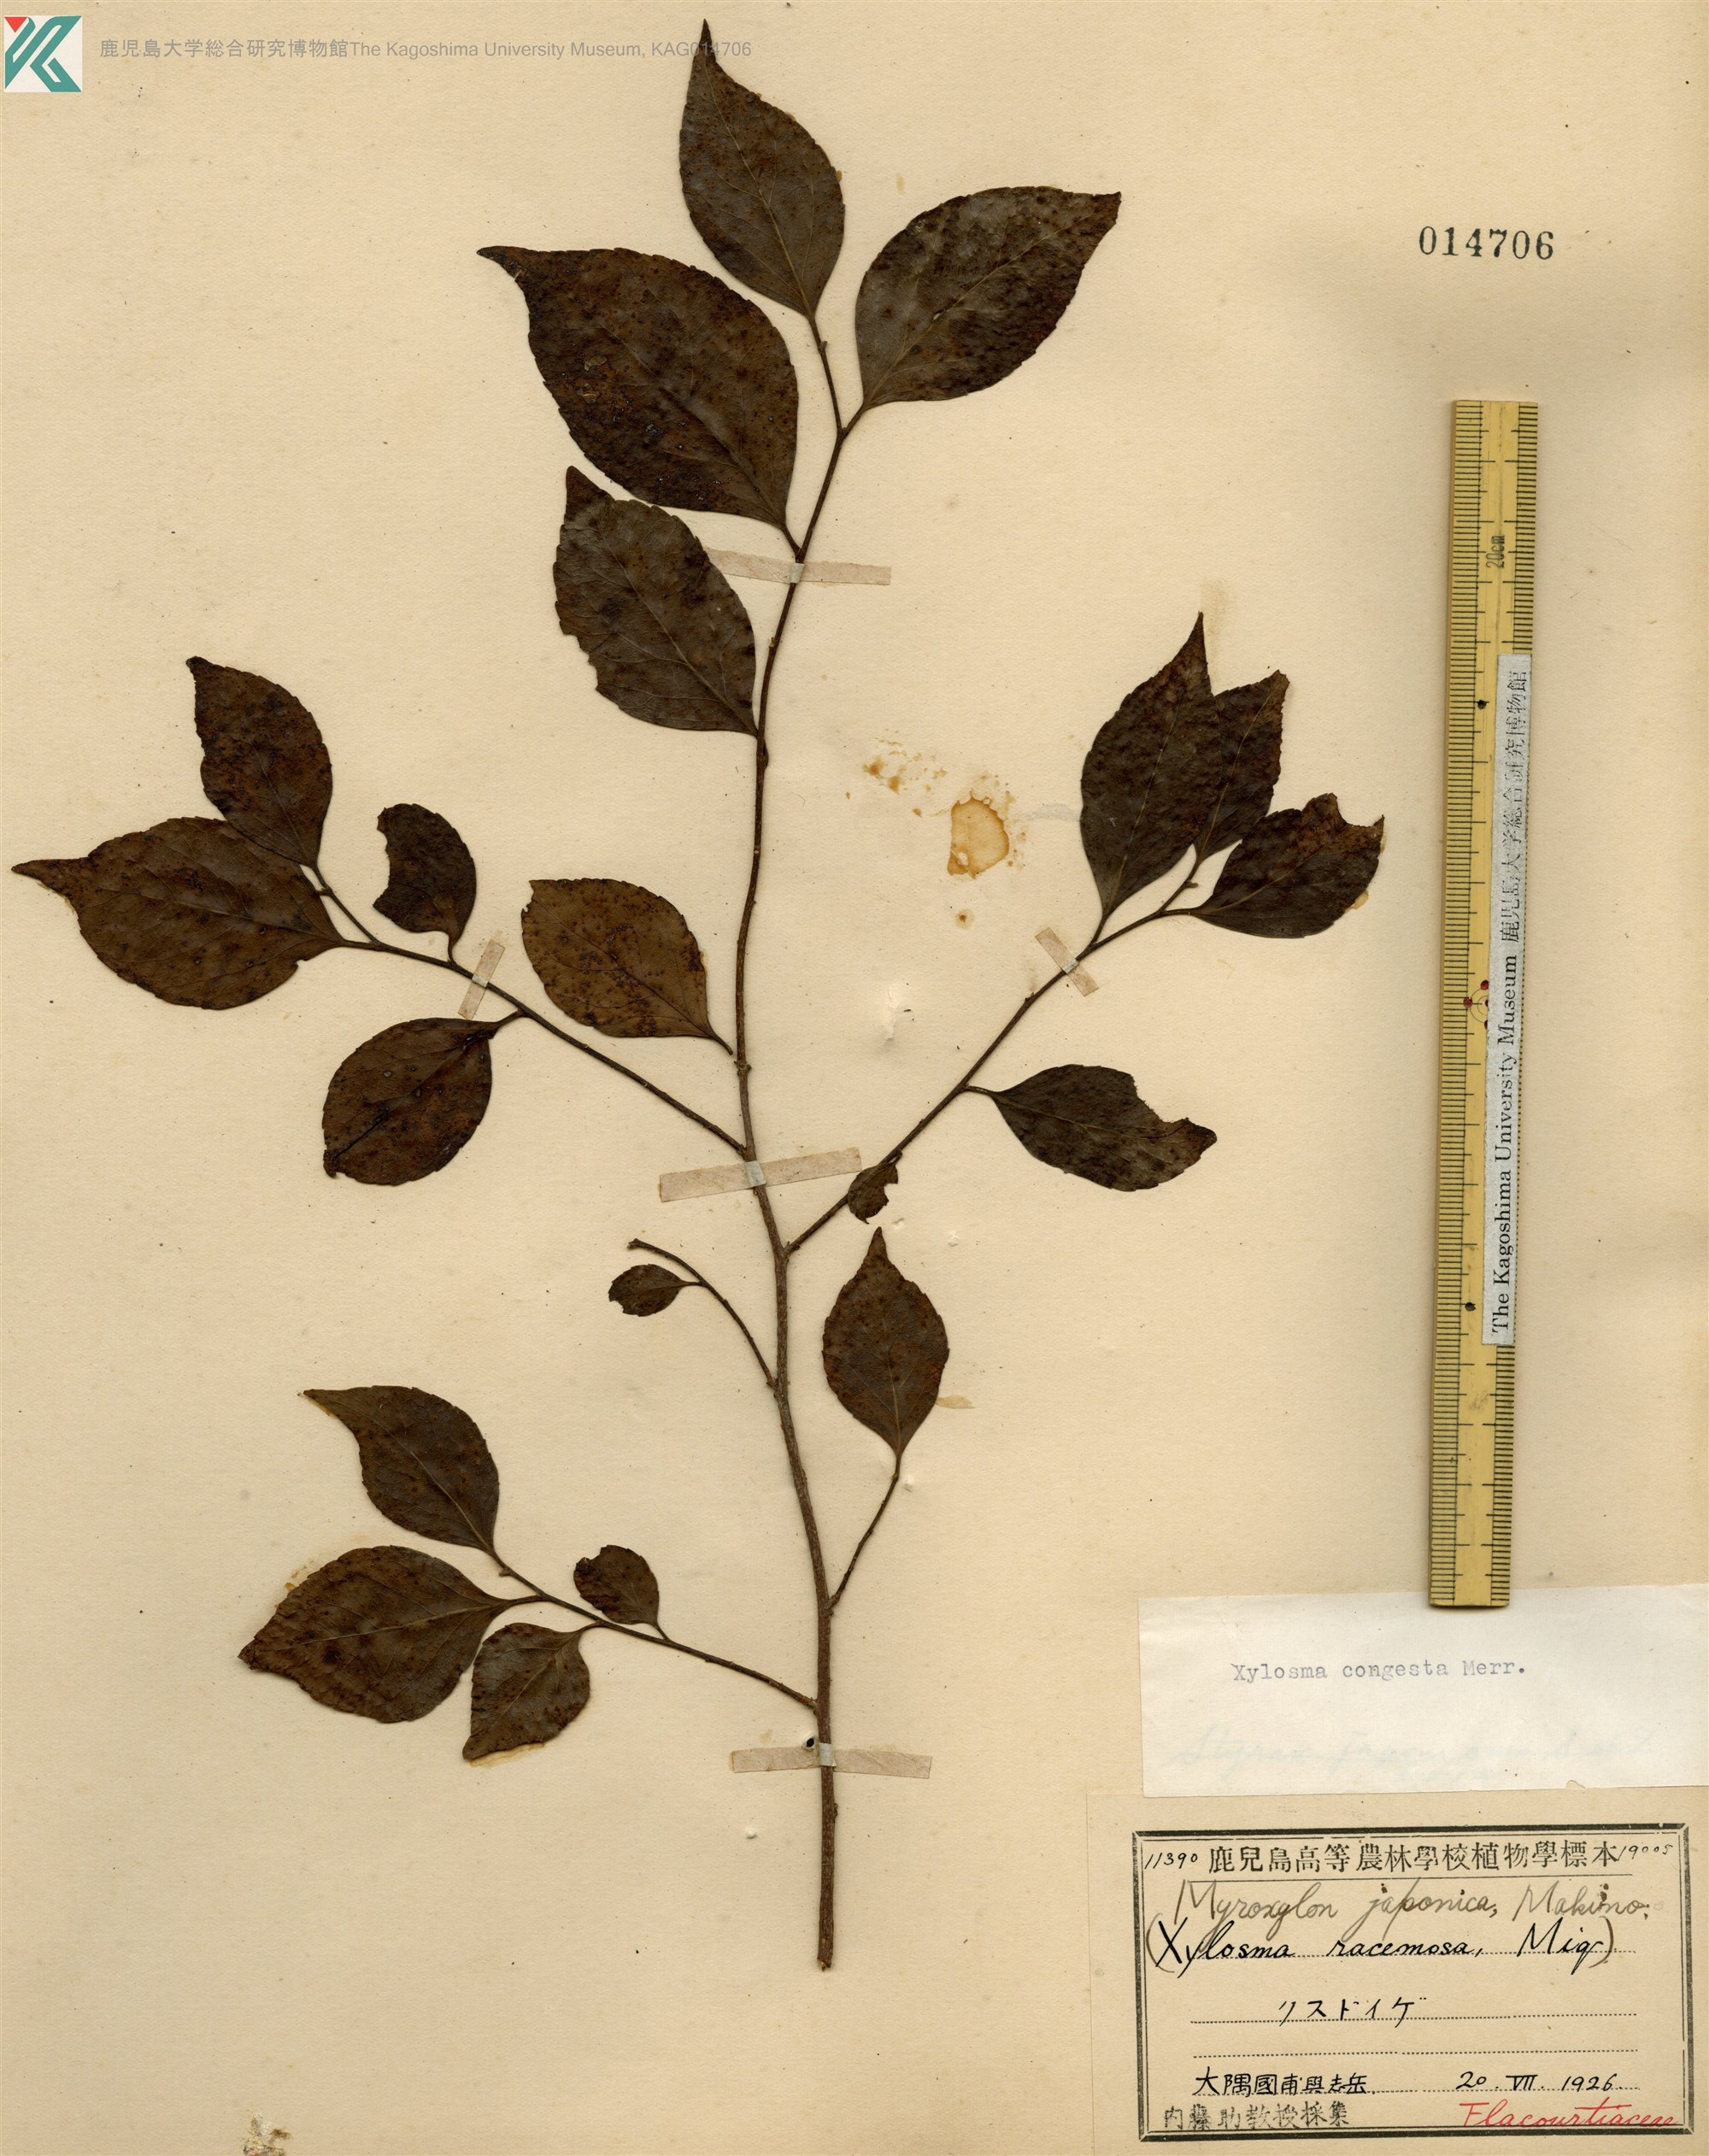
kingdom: Plantae
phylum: Tracheophyta
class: Magnoliopsida
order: Malpighiales
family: Salicaceae
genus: Xylosma
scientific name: Xylosma racemosum
